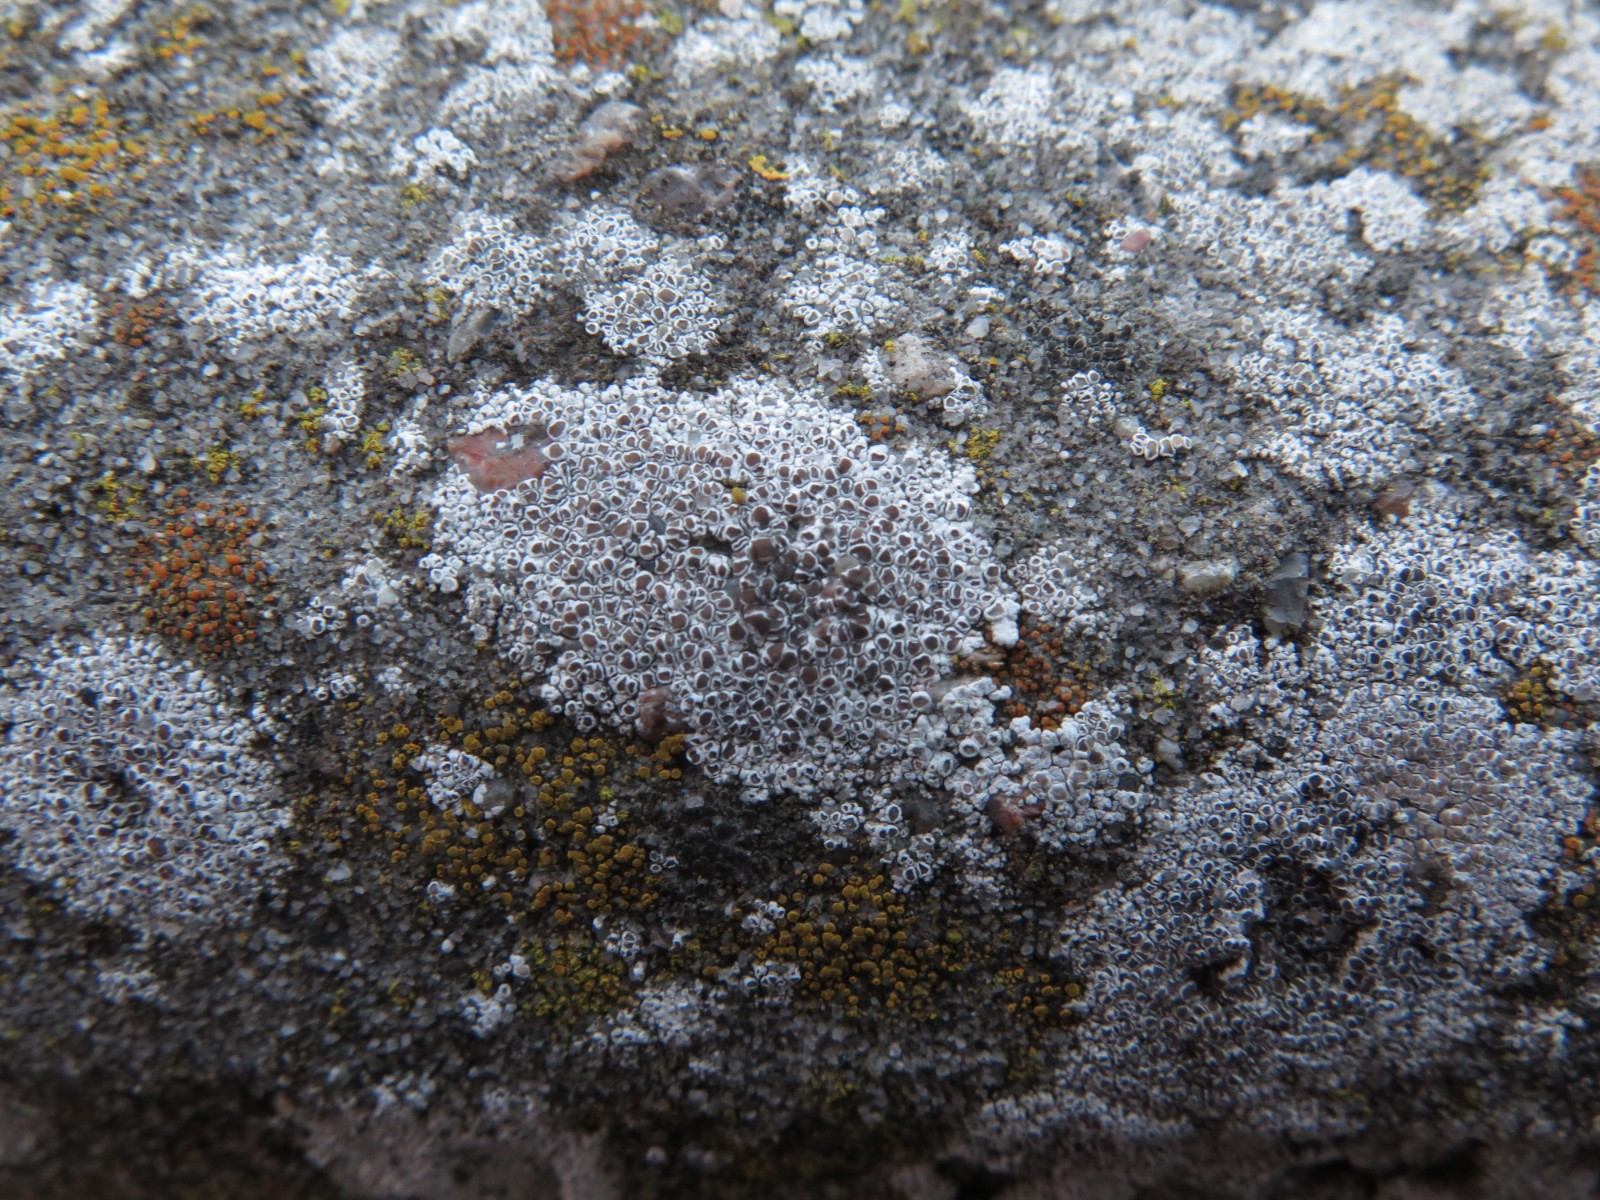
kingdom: Fungi
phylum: Ascomycota
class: Lecanoromycetes
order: Lecanorales
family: Lecanoraceae
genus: Polyozosia
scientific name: Polyozosia albescens
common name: cement-kantskivelav
